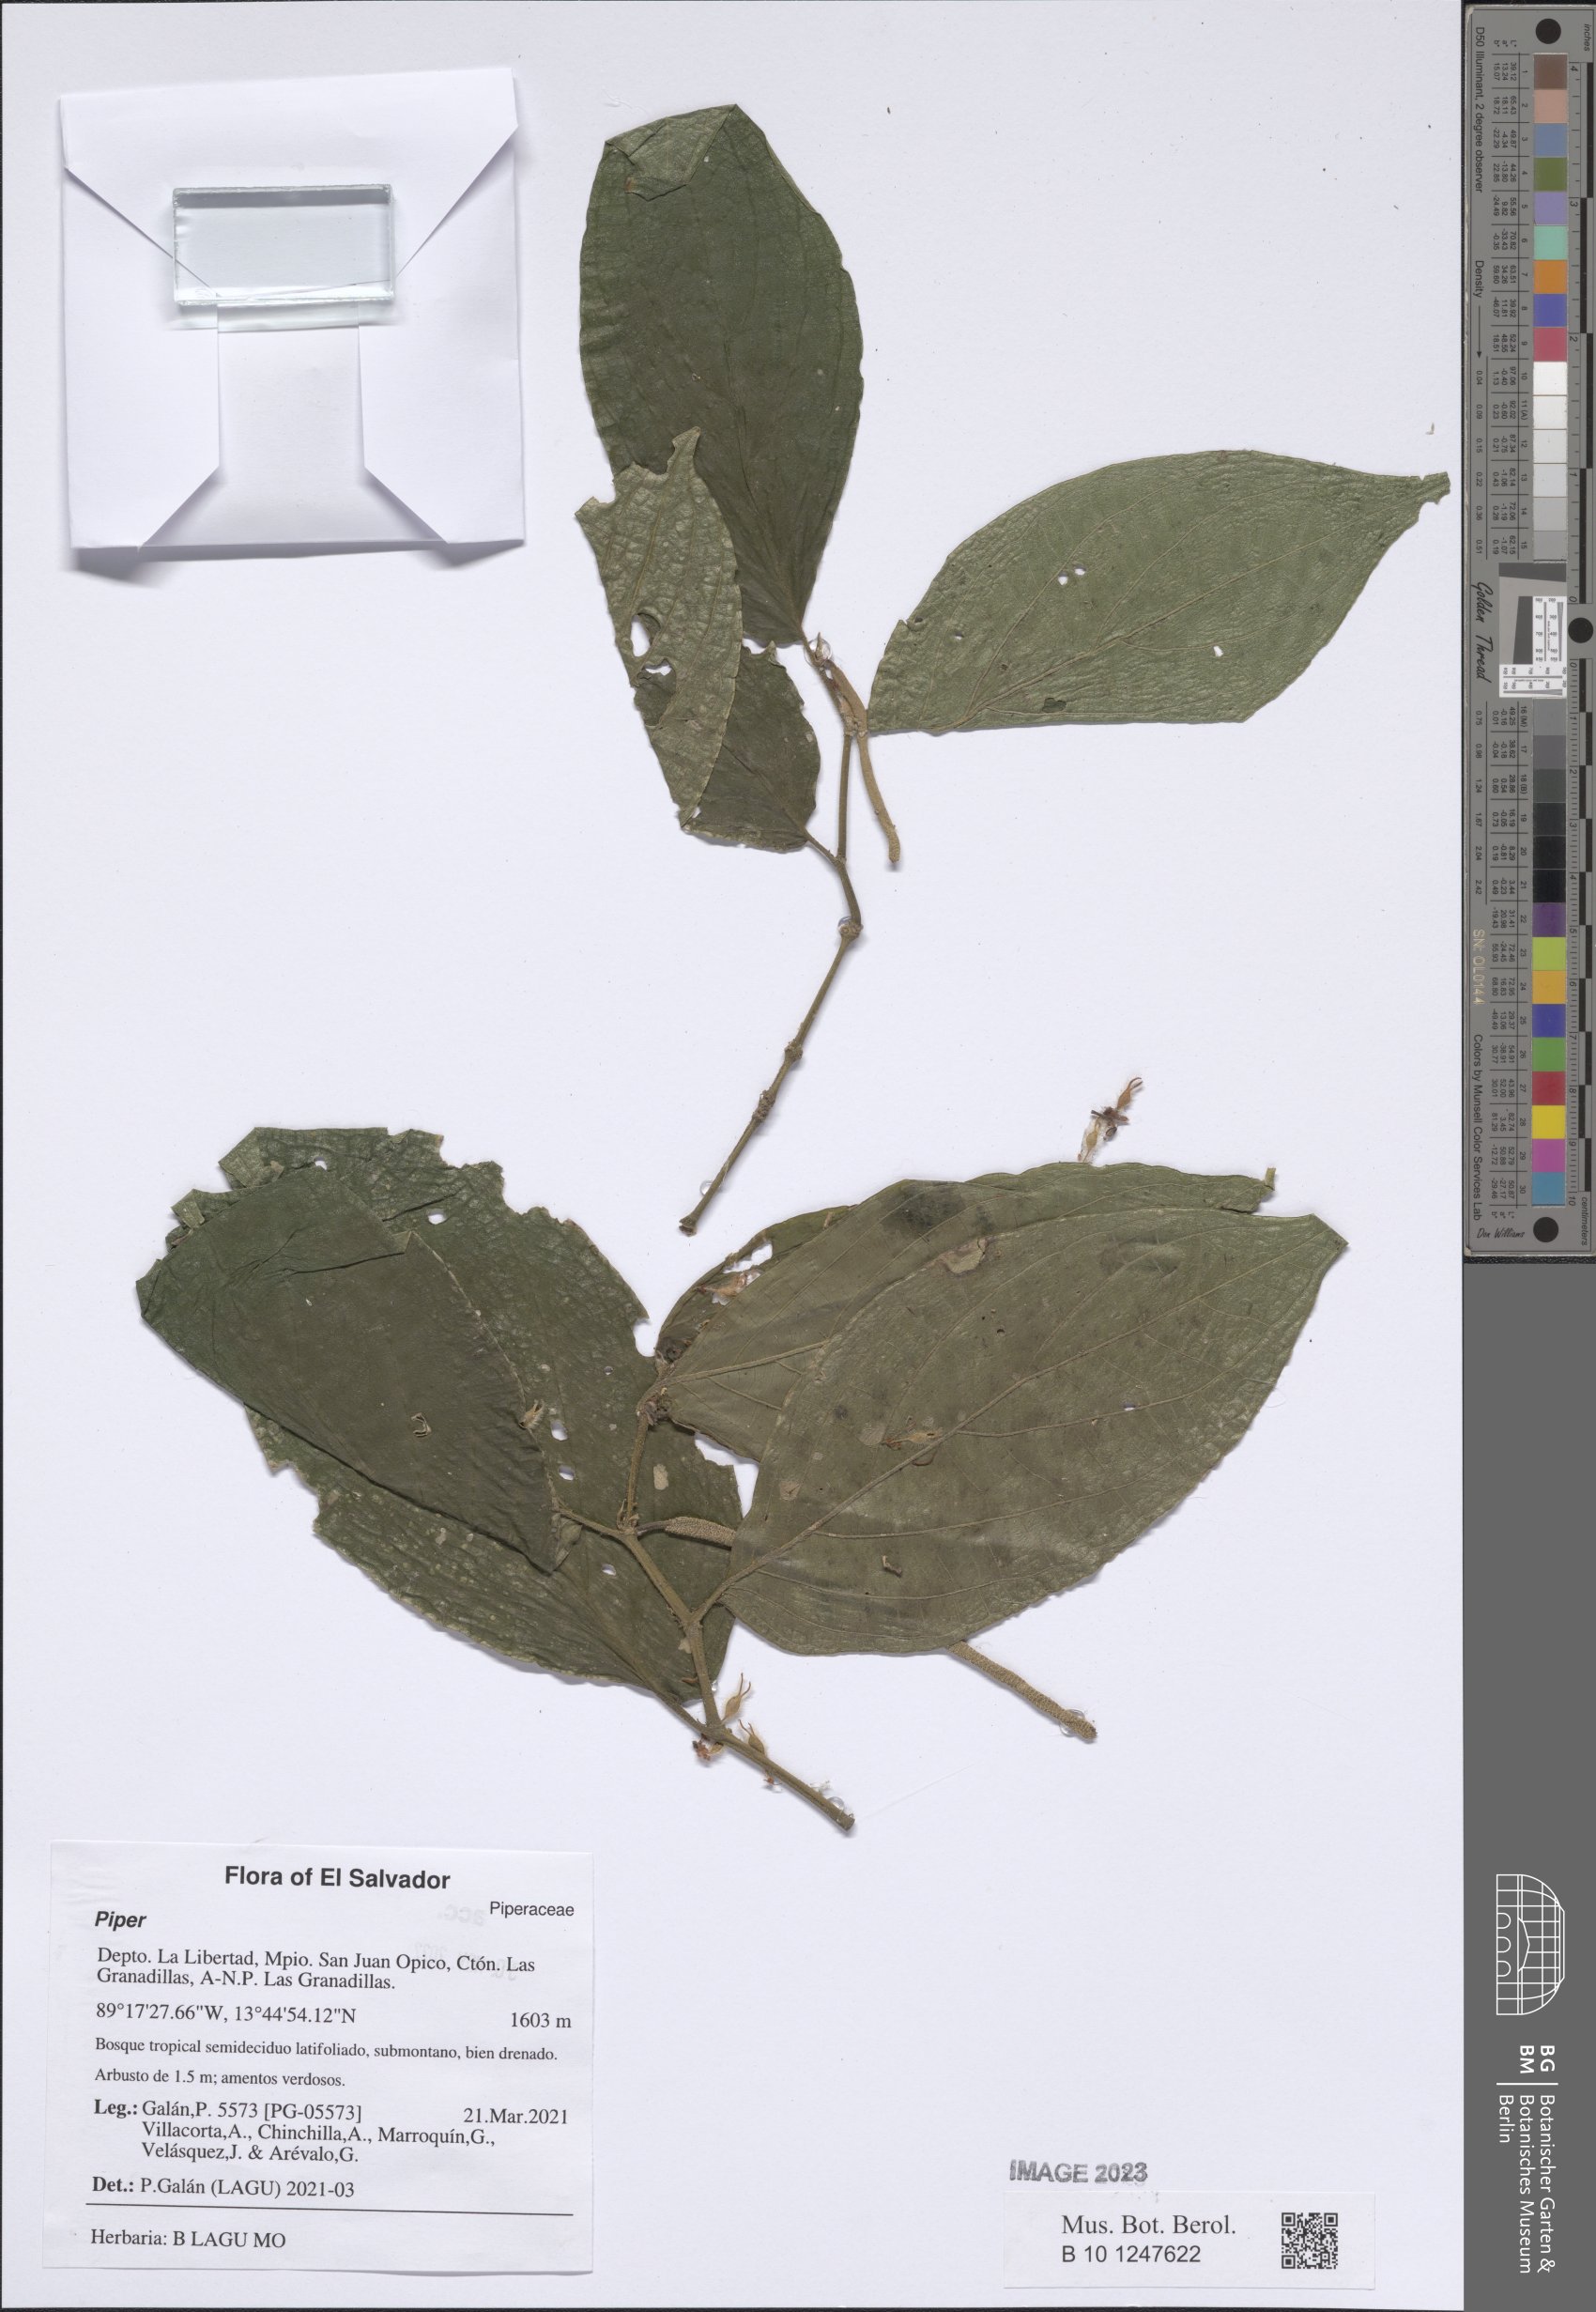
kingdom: Plantae
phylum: Tracheophyta
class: Magnoliopsida
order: Piperales
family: Piperaceae
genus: Piper
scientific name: Piper
